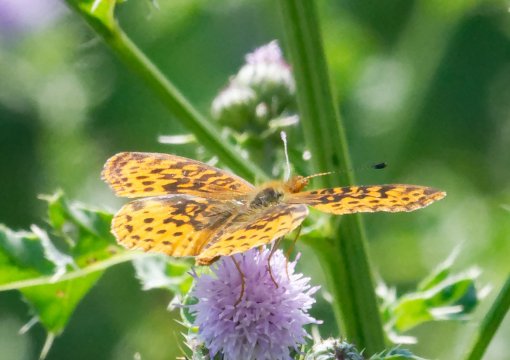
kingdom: Animalia
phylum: Arthropoda
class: Insecta
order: Lepidoptera
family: Nymphalidae
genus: Clossiana
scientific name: Clossiana toddi
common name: Meadow Fritillary
